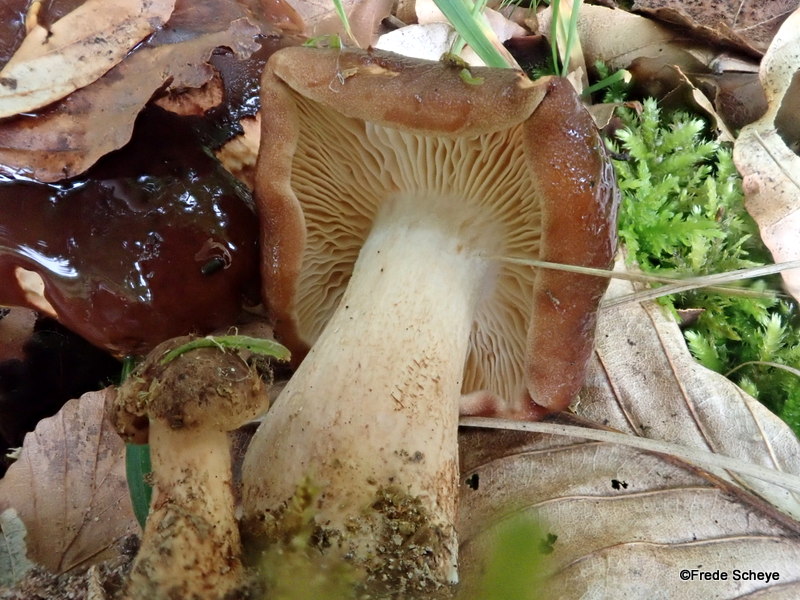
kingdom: Fungi
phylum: Basidiomycota
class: Agaricomycetes
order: Agaricales
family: Tricholomataceae
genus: Tricholoma
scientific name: Tricholoma ustale
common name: sveden ridderhat
